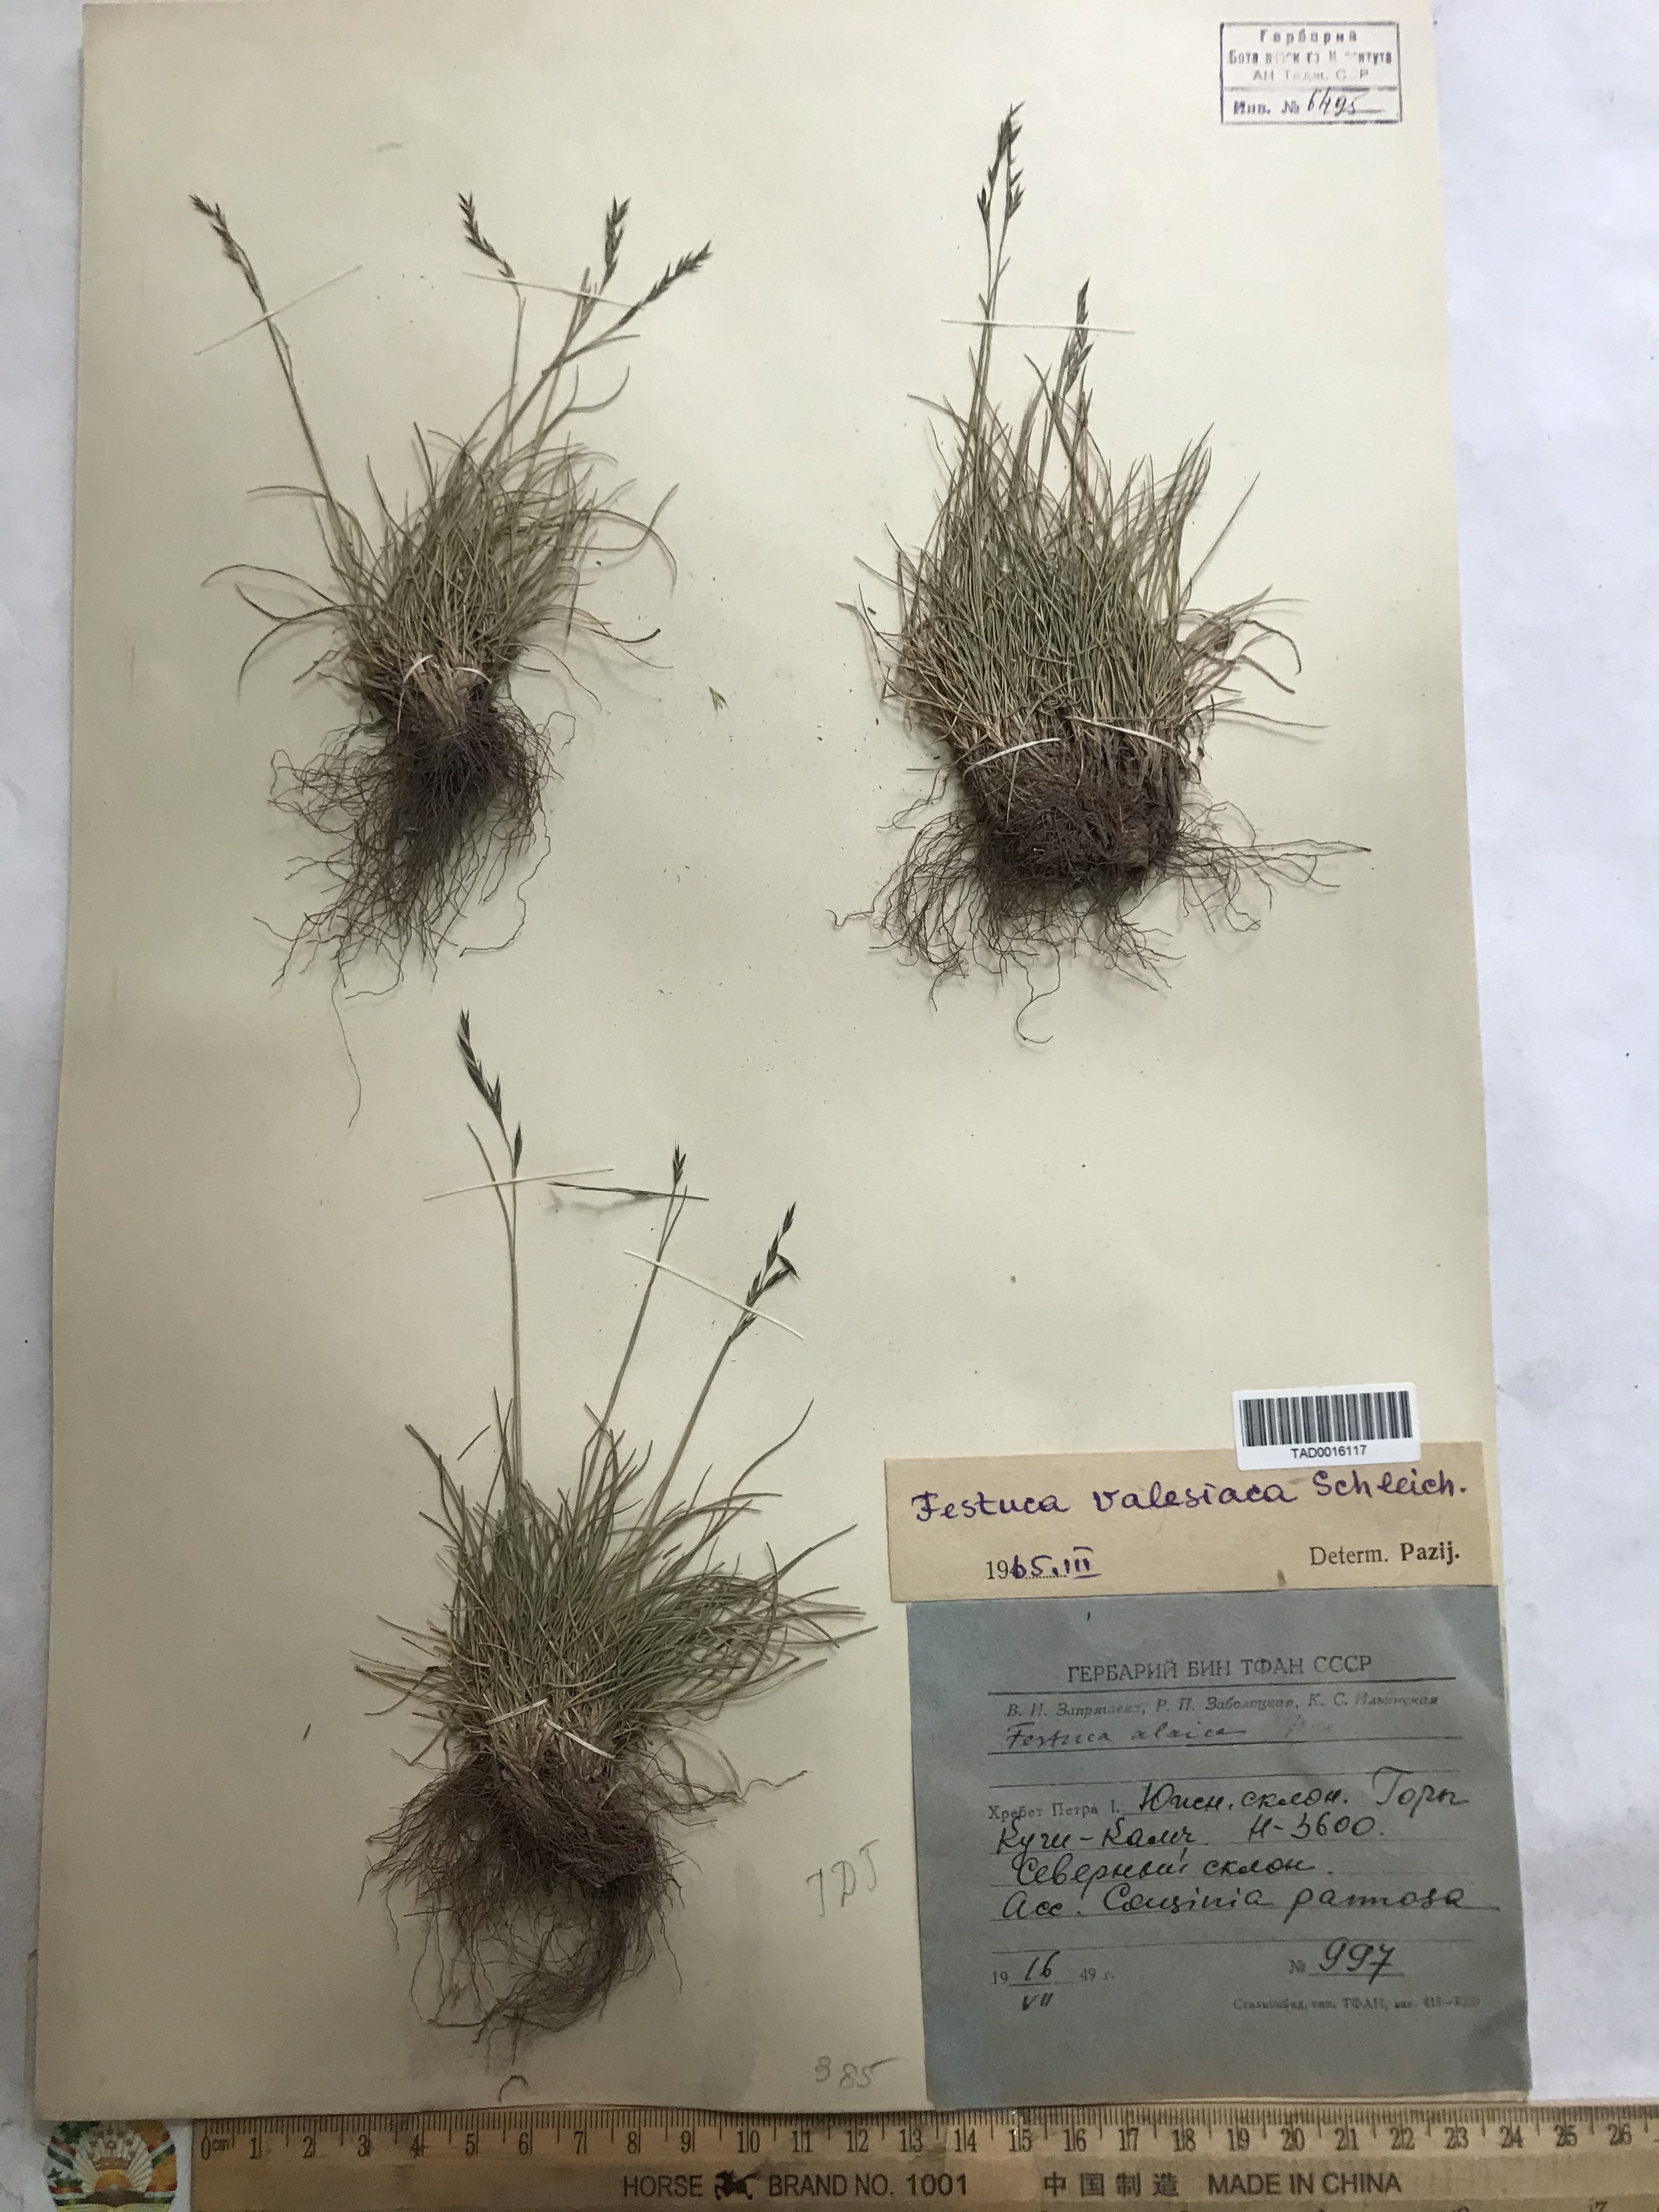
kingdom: Plantae
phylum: Tracheophyta
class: Liliopsida
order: Poales
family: Poaceae
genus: Festuca
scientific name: Festuca valesiaca
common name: Volga fescue
